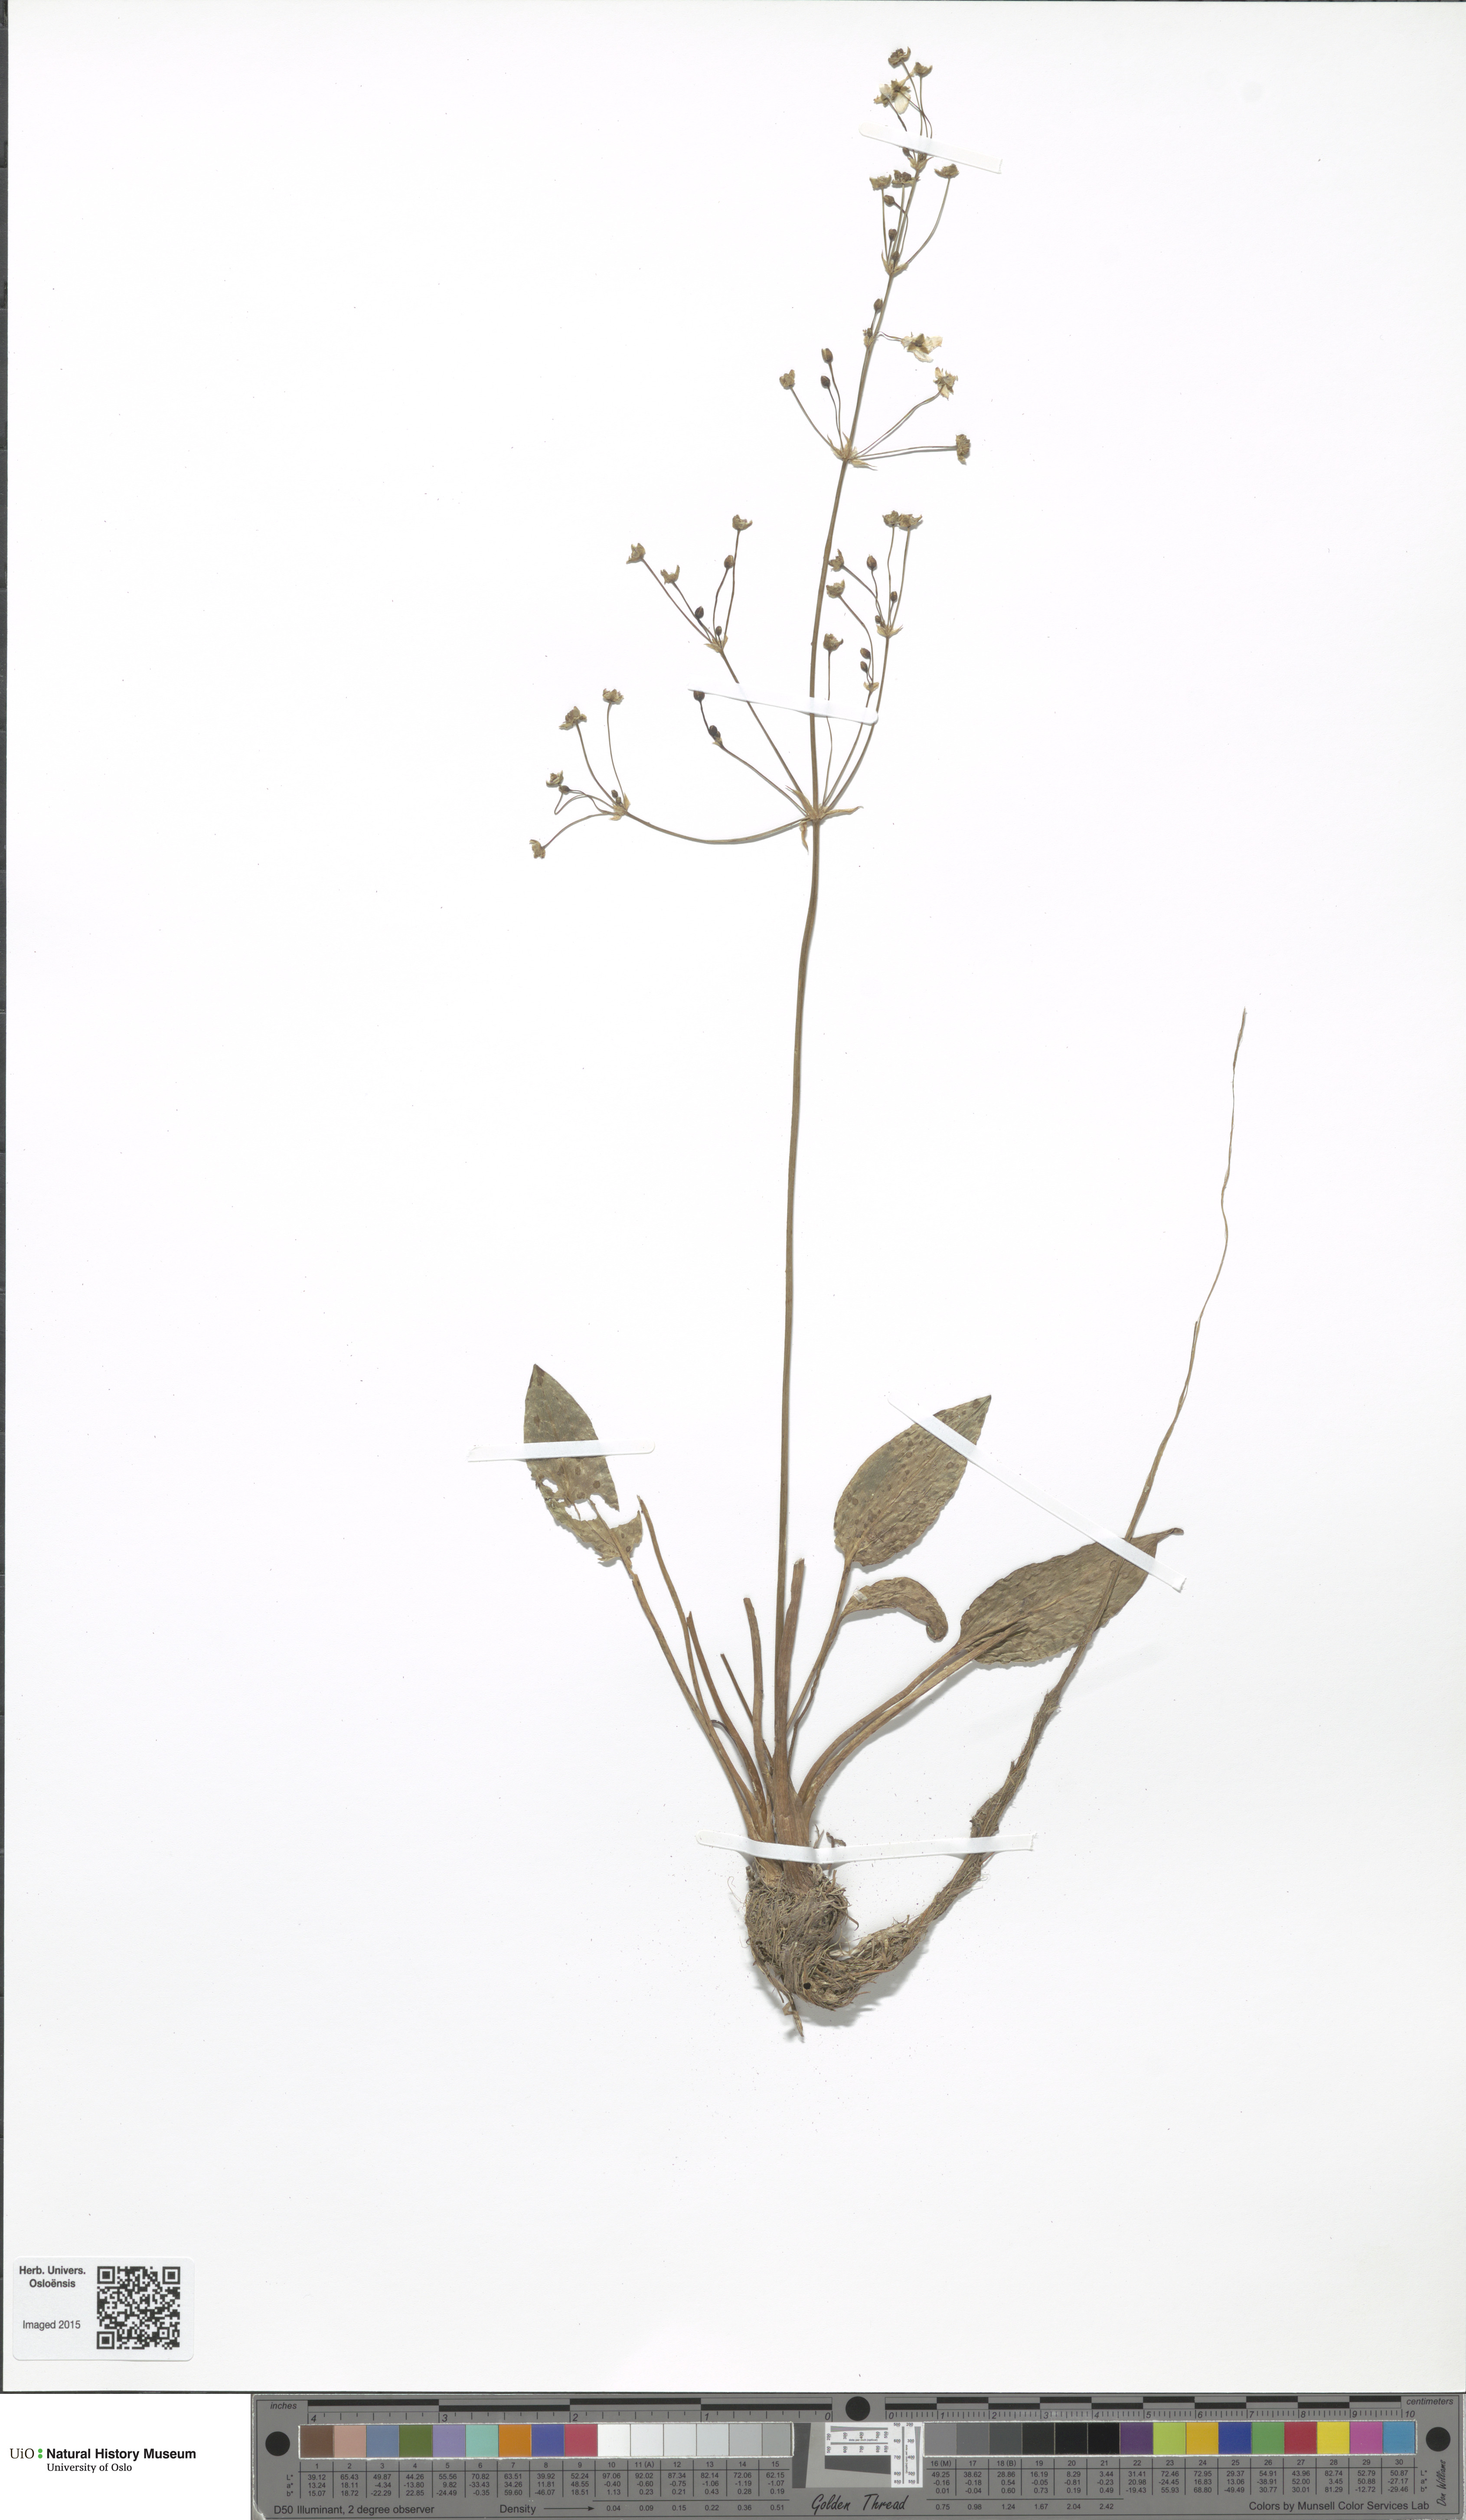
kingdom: Plantae
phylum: Tracheophyta
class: Liliopsida
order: Alismatales
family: Alismataceae
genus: Alisma
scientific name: Alisma plantago-aquatica
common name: Water-plantain
